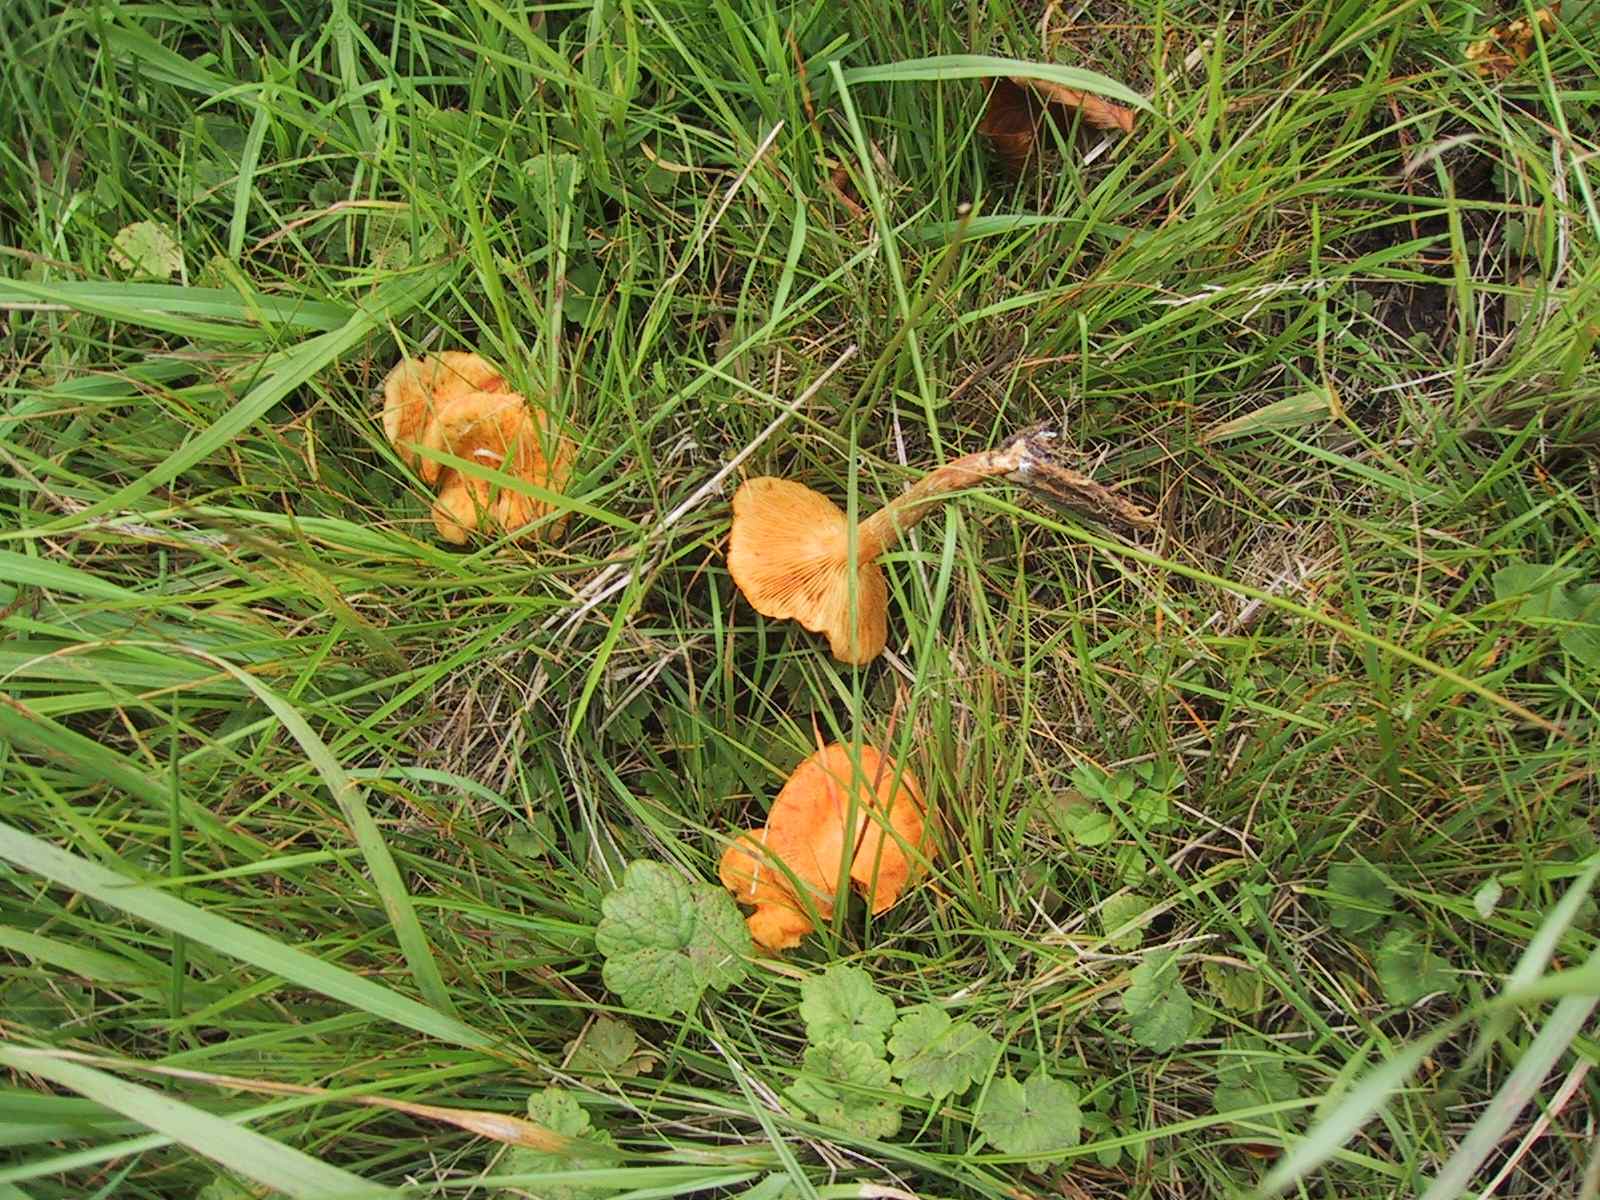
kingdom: Fungi
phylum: Basidiomycota
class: Agaricomycetes
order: Agaricales
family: Hymenogastraceae
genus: Gymnopilus
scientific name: Gymnopilus penetrans
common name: plettet flammehat
